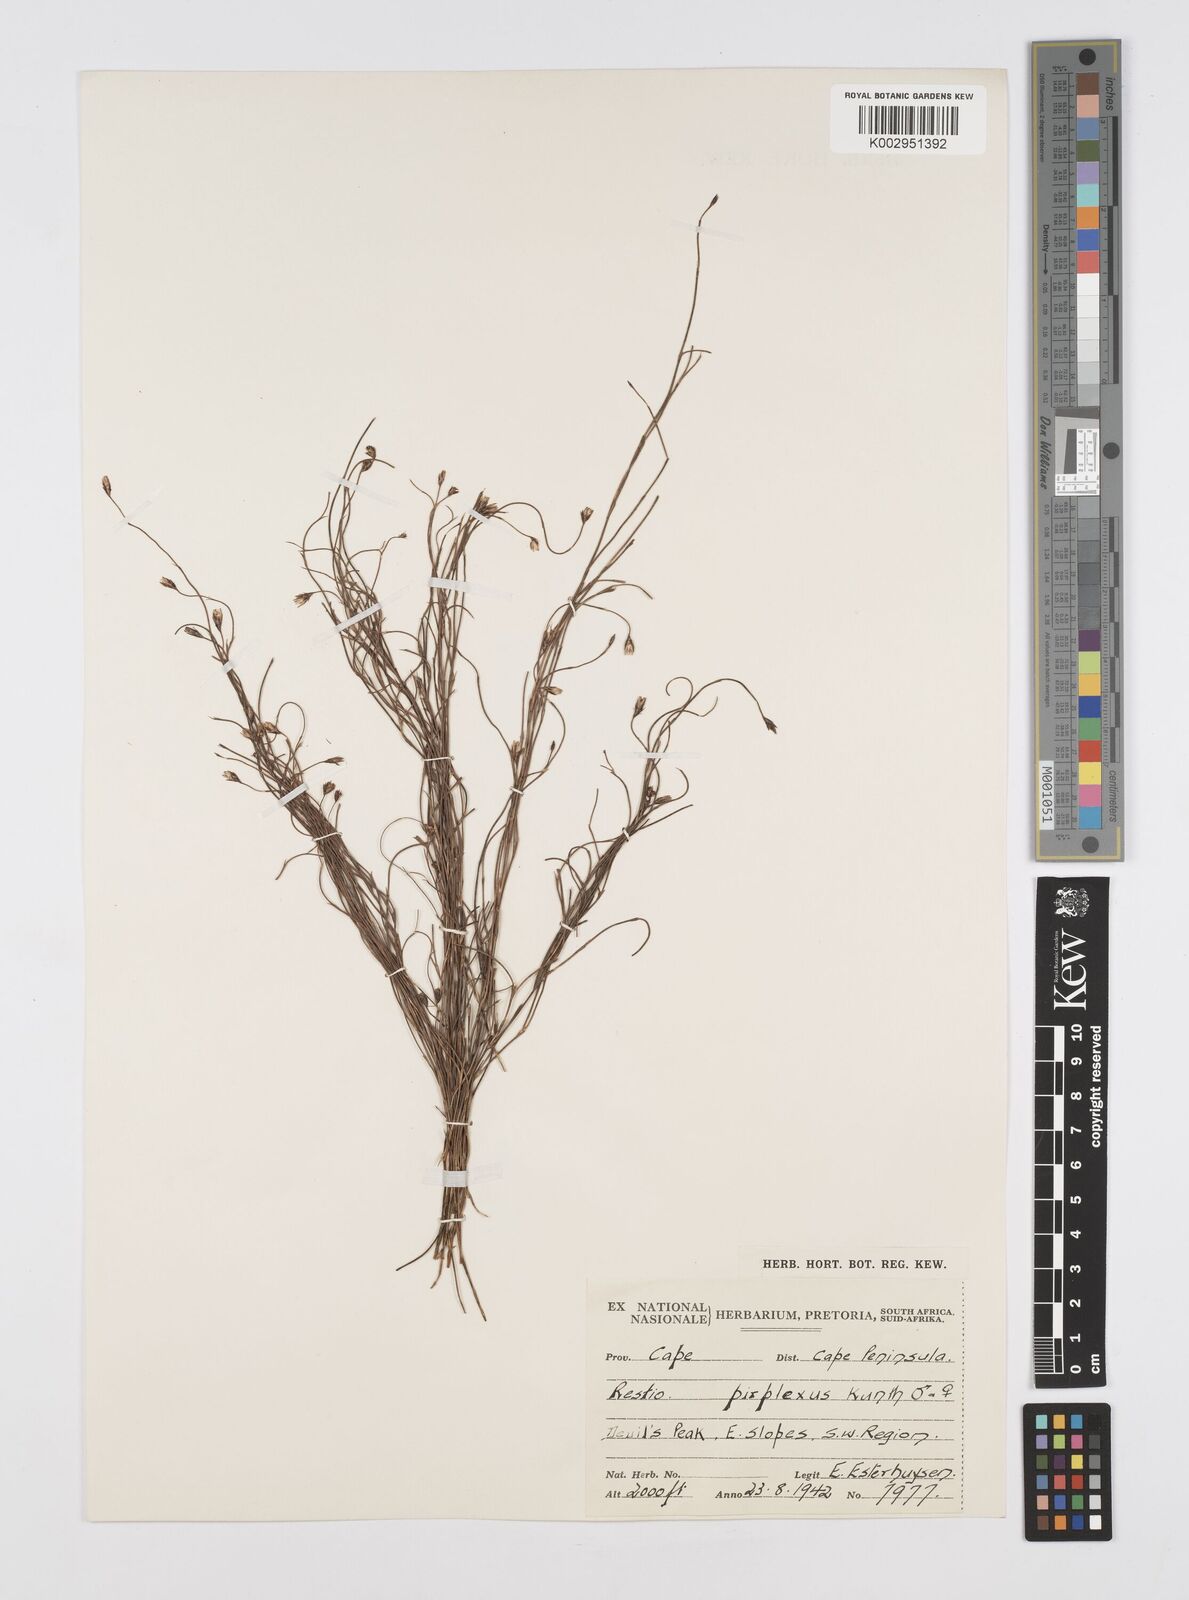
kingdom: Plantae
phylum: Tracheophyta
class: Liliopsida
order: Poales
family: Restionaceae
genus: Restio
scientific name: Restio perplexus
